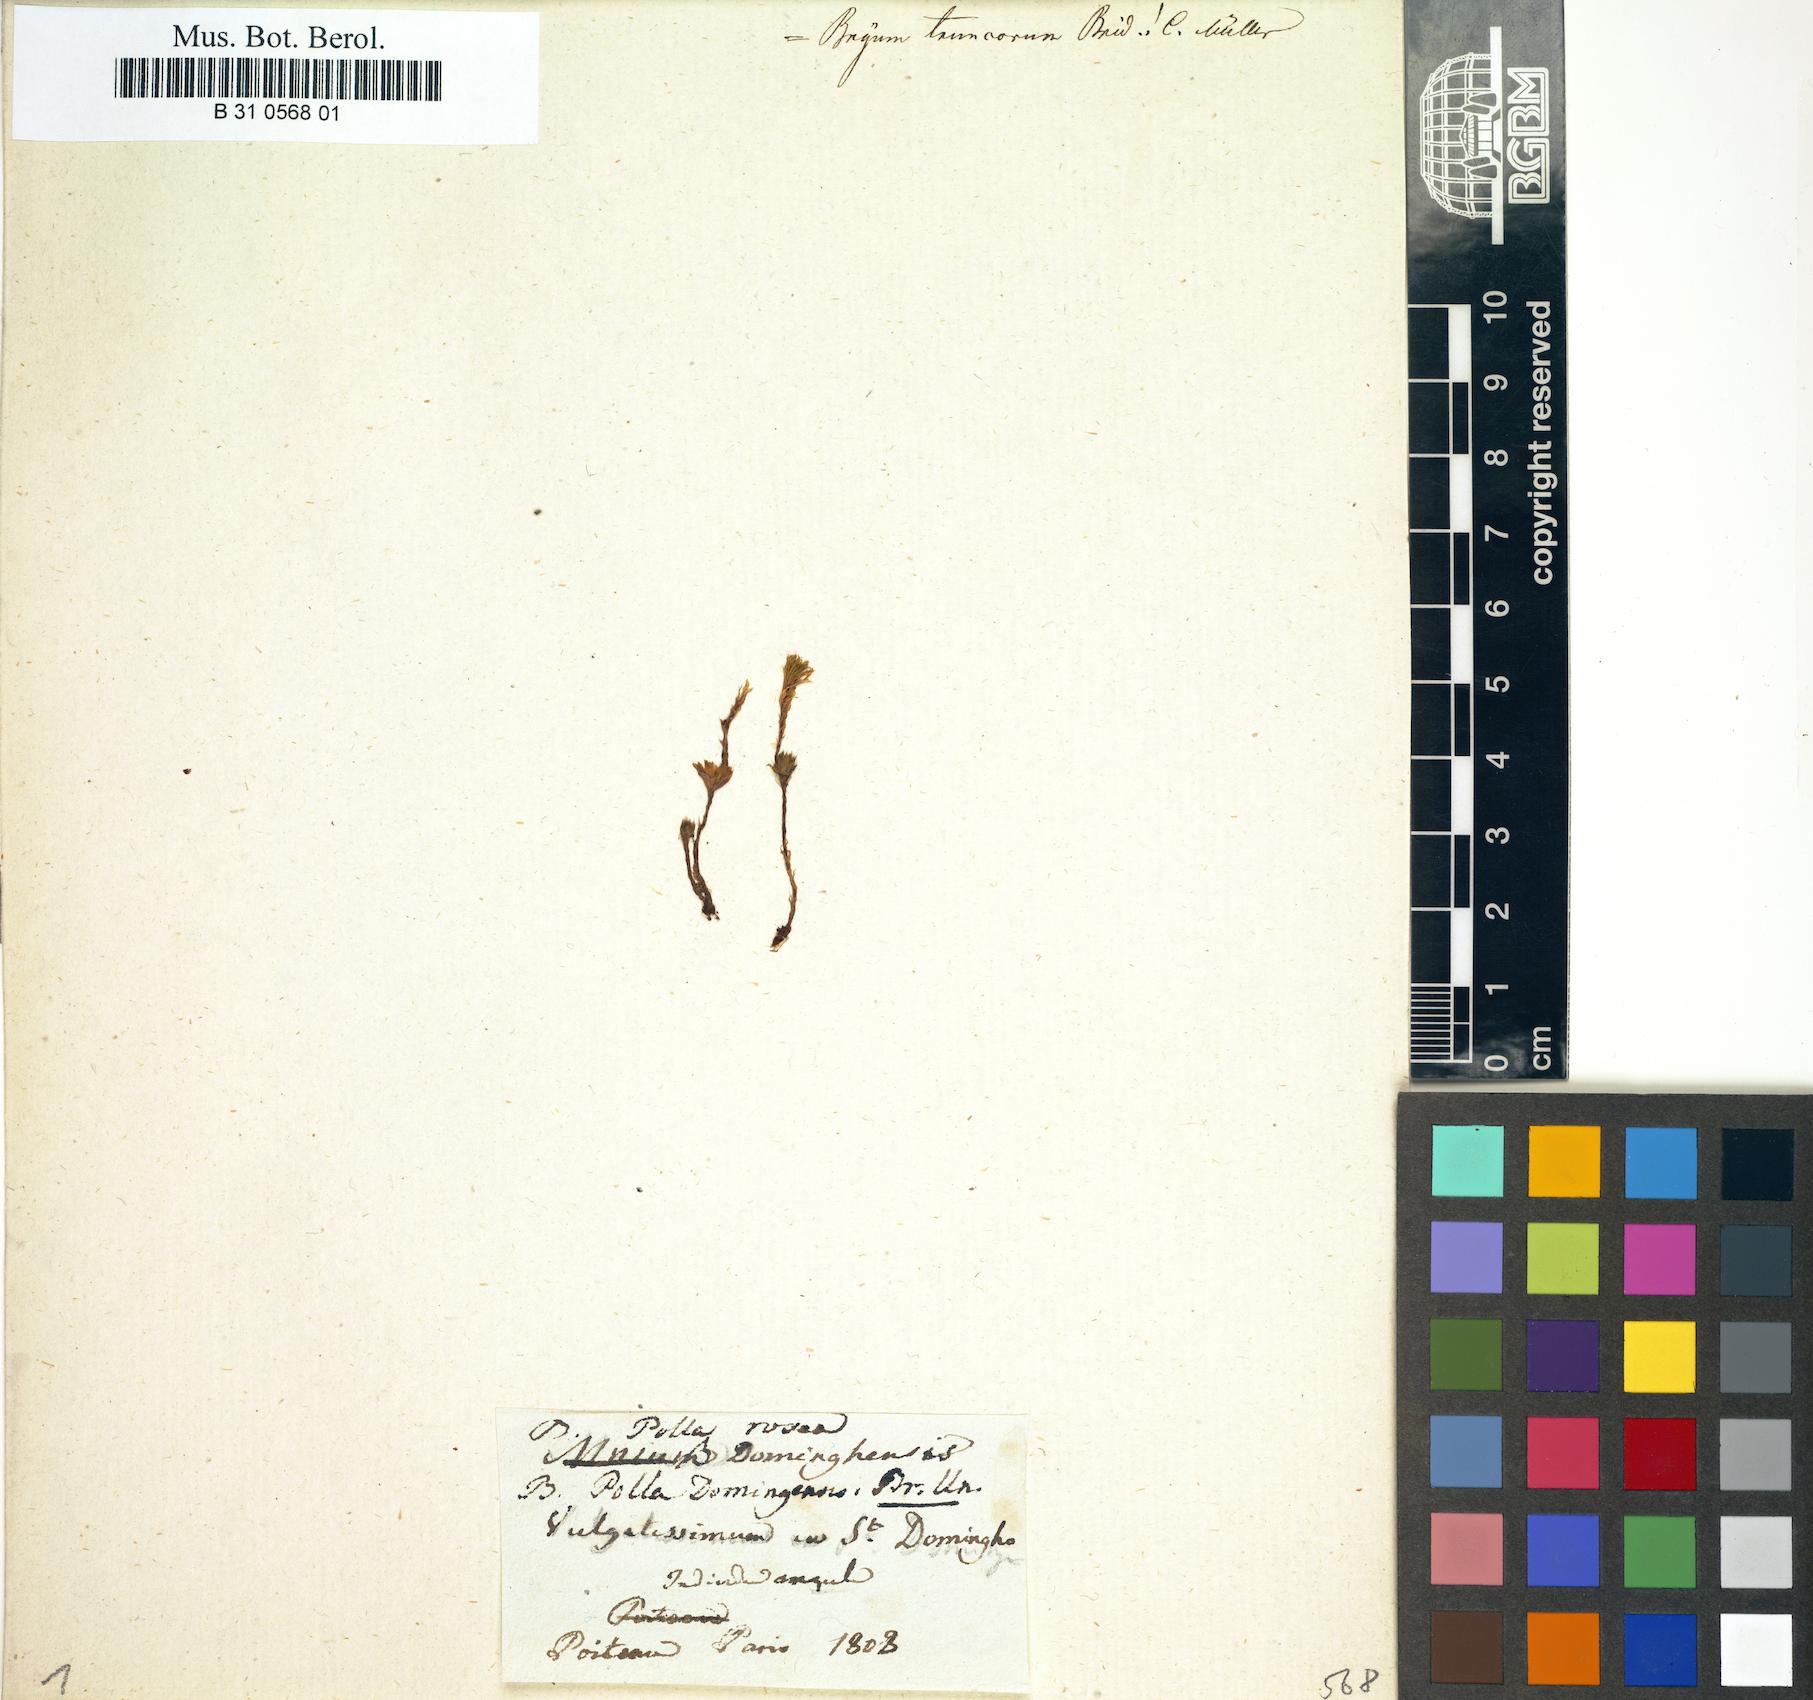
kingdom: Plantae
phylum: Bryophyta
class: Bryopsida
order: Bryales
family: Bryaceae
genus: Rhodobryum
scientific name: Rhodobryum roseum
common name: Rose-moss
